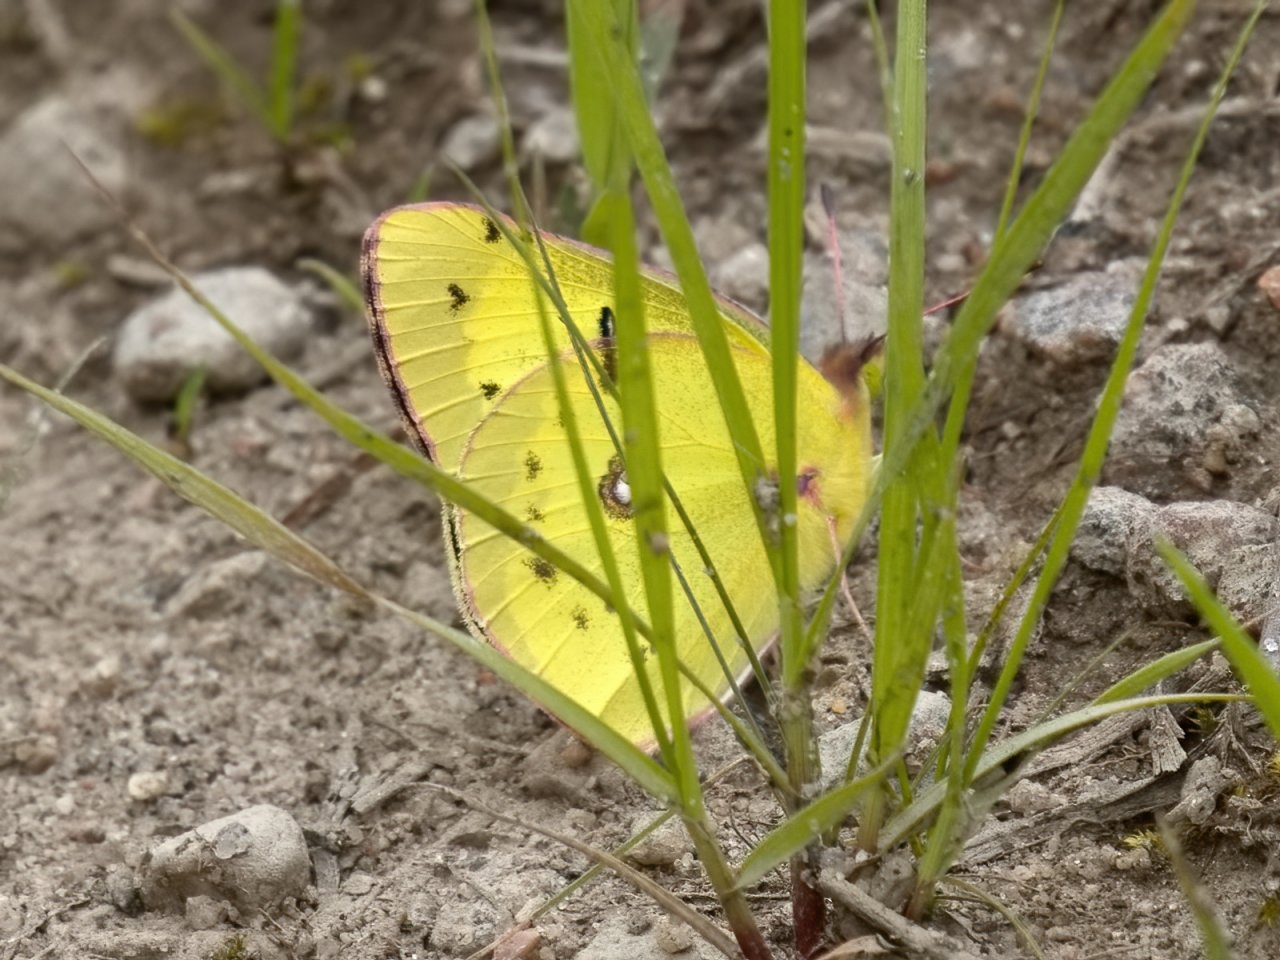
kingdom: Animalia
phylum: Arthropoda
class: Insecta
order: Lepidoptera
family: Pieridae
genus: Colias
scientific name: Colias philodice
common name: Clouded Sulphur
